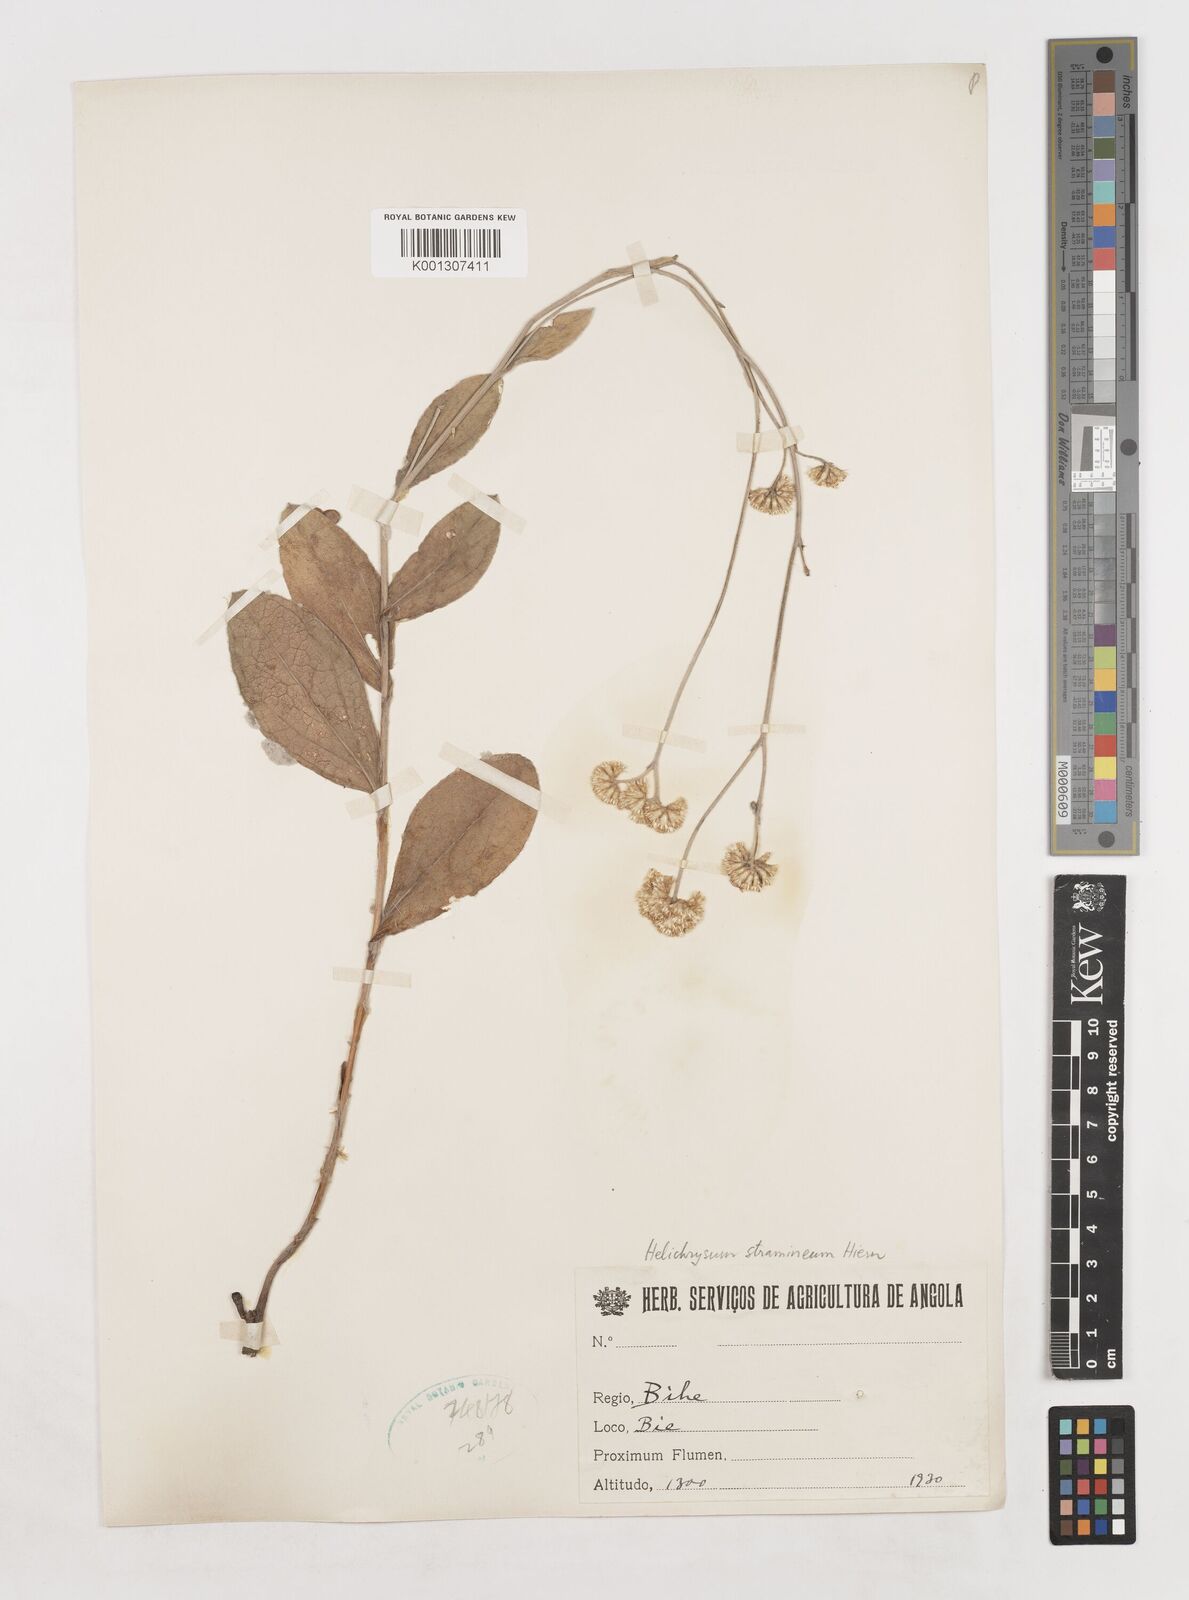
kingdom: Plantae
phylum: Tracheophyta
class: Magnoliopsida
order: Asterales
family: Asteraceae
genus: Helichrysum
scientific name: Helichrysum stramineum
